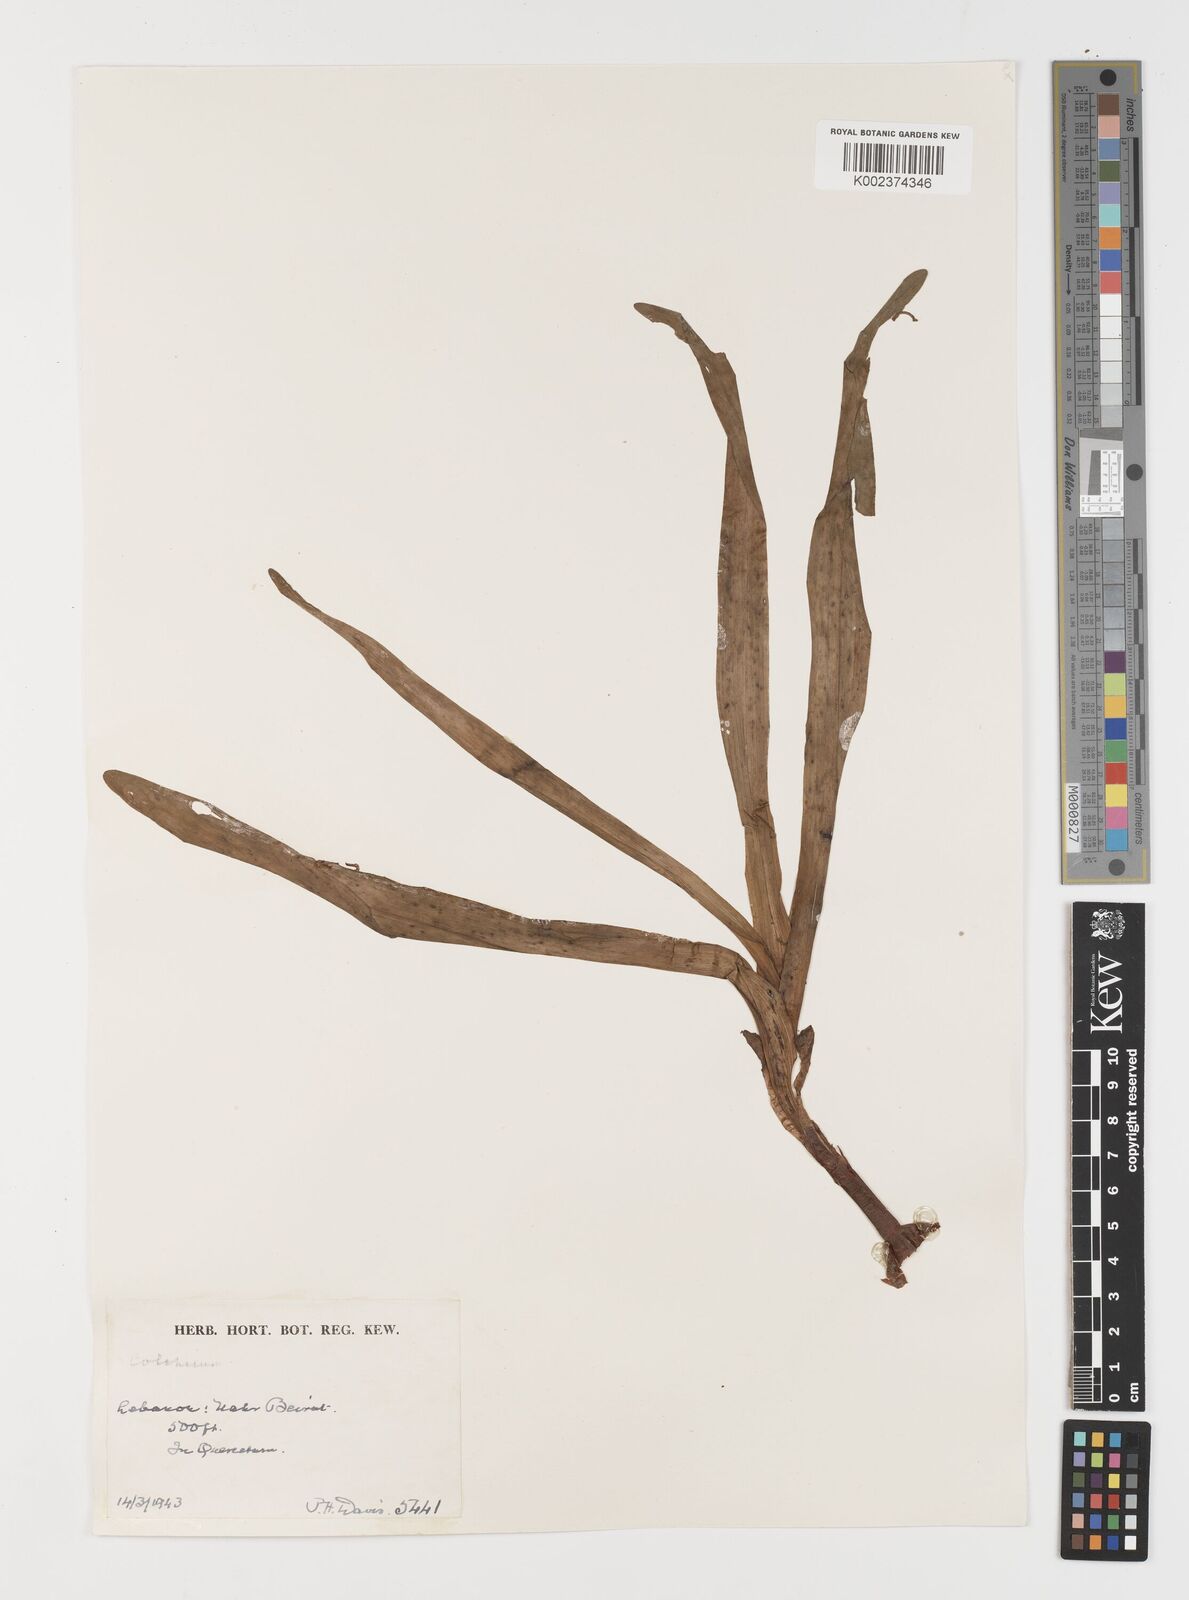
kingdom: Plantae
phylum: Tracheophyta
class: Liliopsida
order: Liliales
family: Colchicaceae
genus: Colchicum
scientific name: Colchicum
